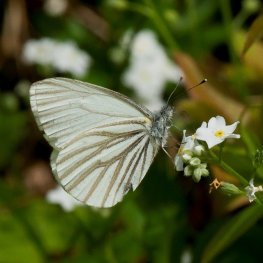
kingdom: Animalia
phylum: Arthropoda
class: Insecta
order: Lepidoptera
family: Pieridae
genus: Pieris
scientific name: Pieris oleracea
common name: Mustard White
